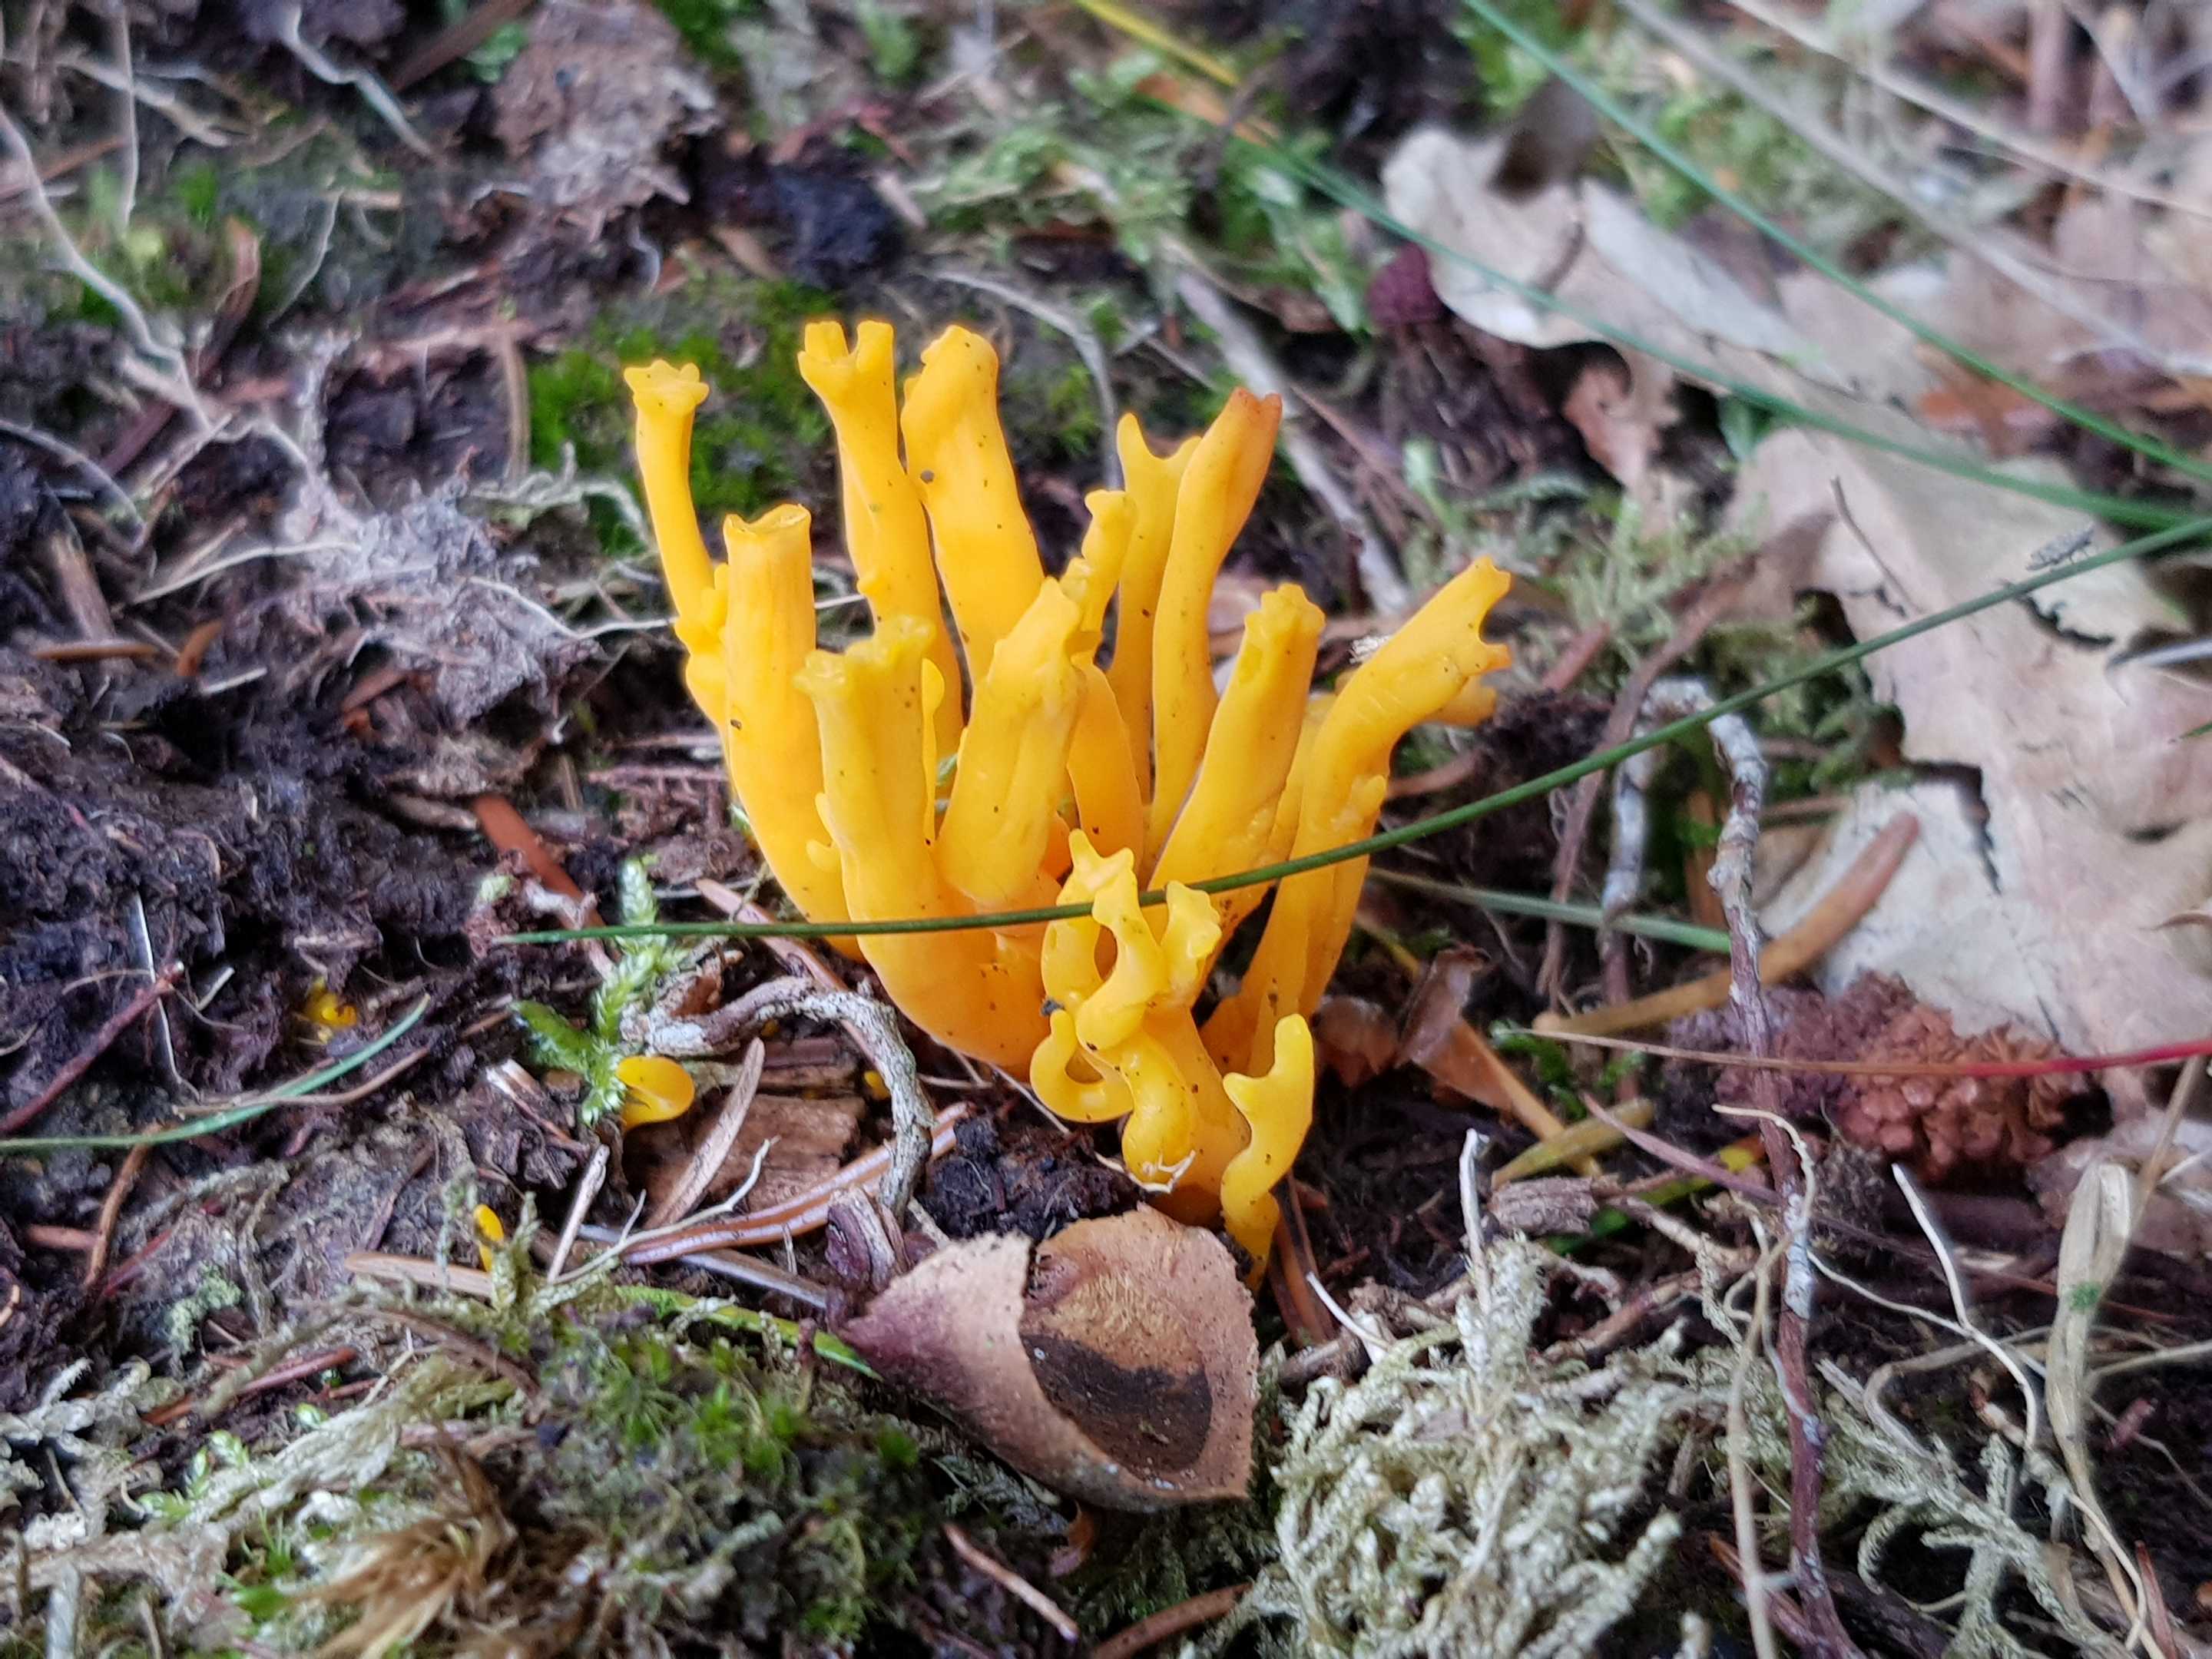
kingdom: Fungi
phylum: Basidiomycota
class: Dacrymycetes
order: Dacrymycetales
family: Dacrymycetaceae
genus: Calocera
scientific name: Calocera viscosa
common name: almindelig guldgaffel
